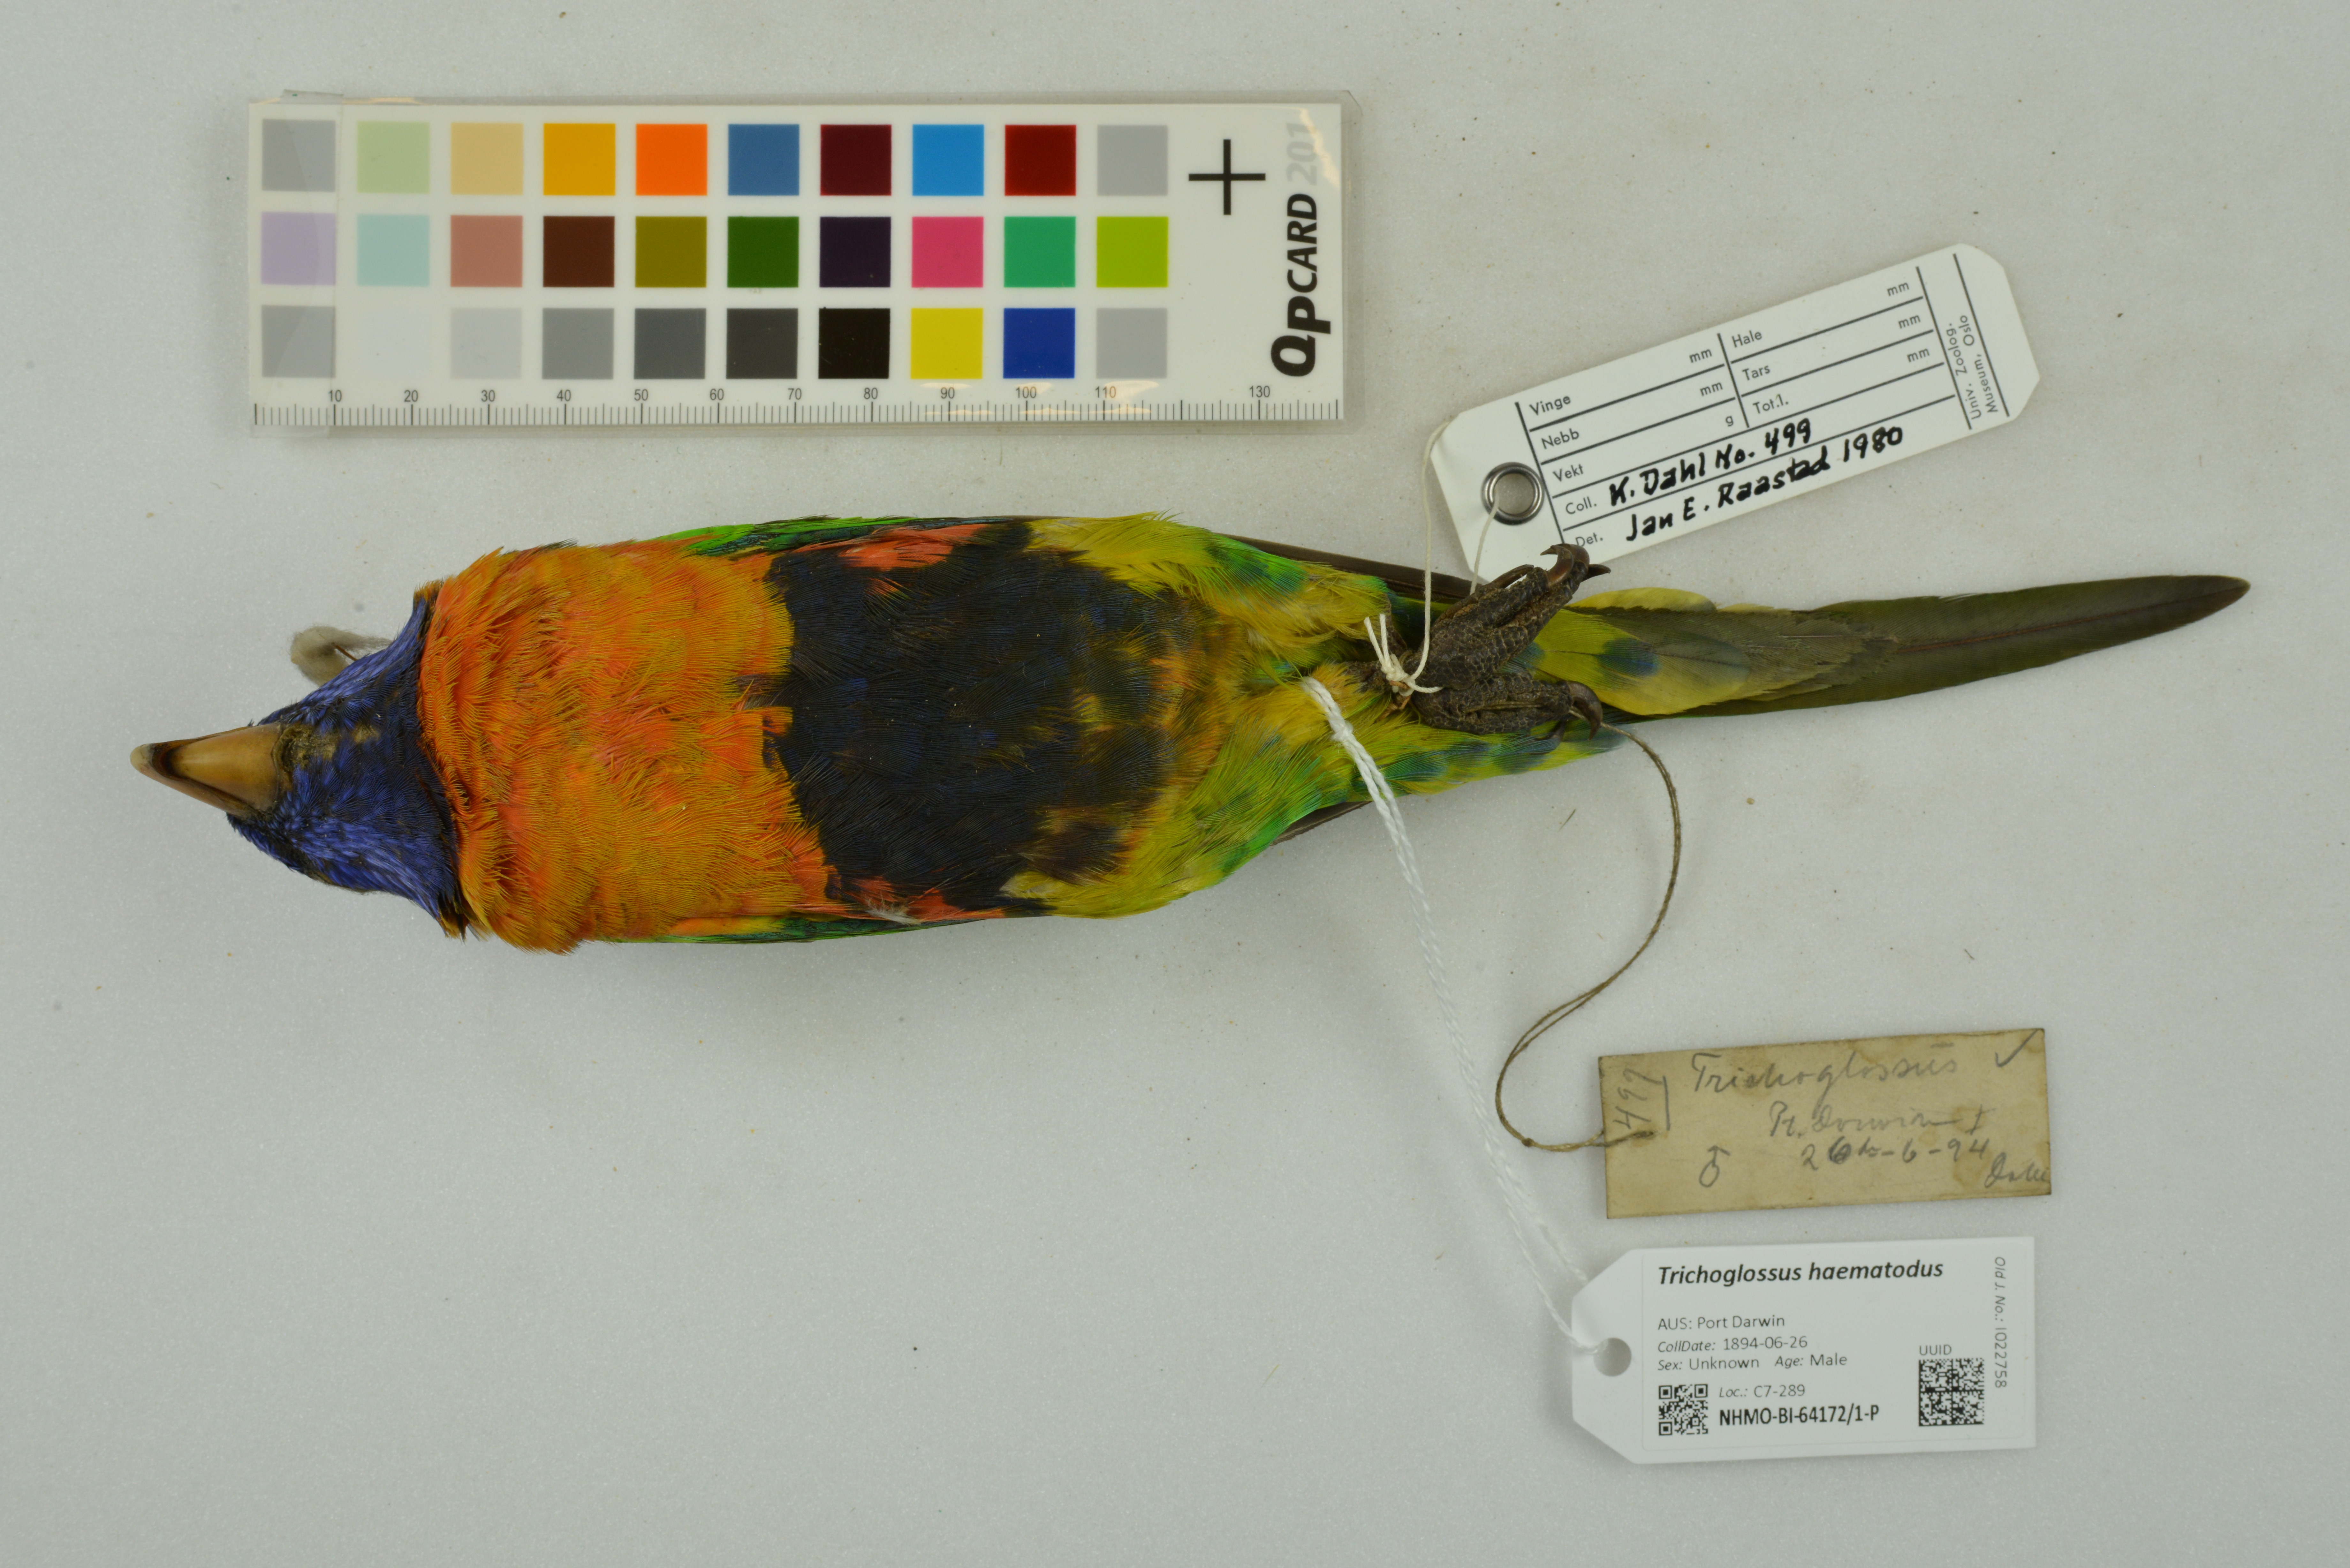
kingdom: Animalia
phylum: Chordata
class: Aves
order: Psittaciformes
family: Psittacidae
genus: Trichoglossus
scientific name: Trichoglossus haematodus
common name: Coconut lorikeet
